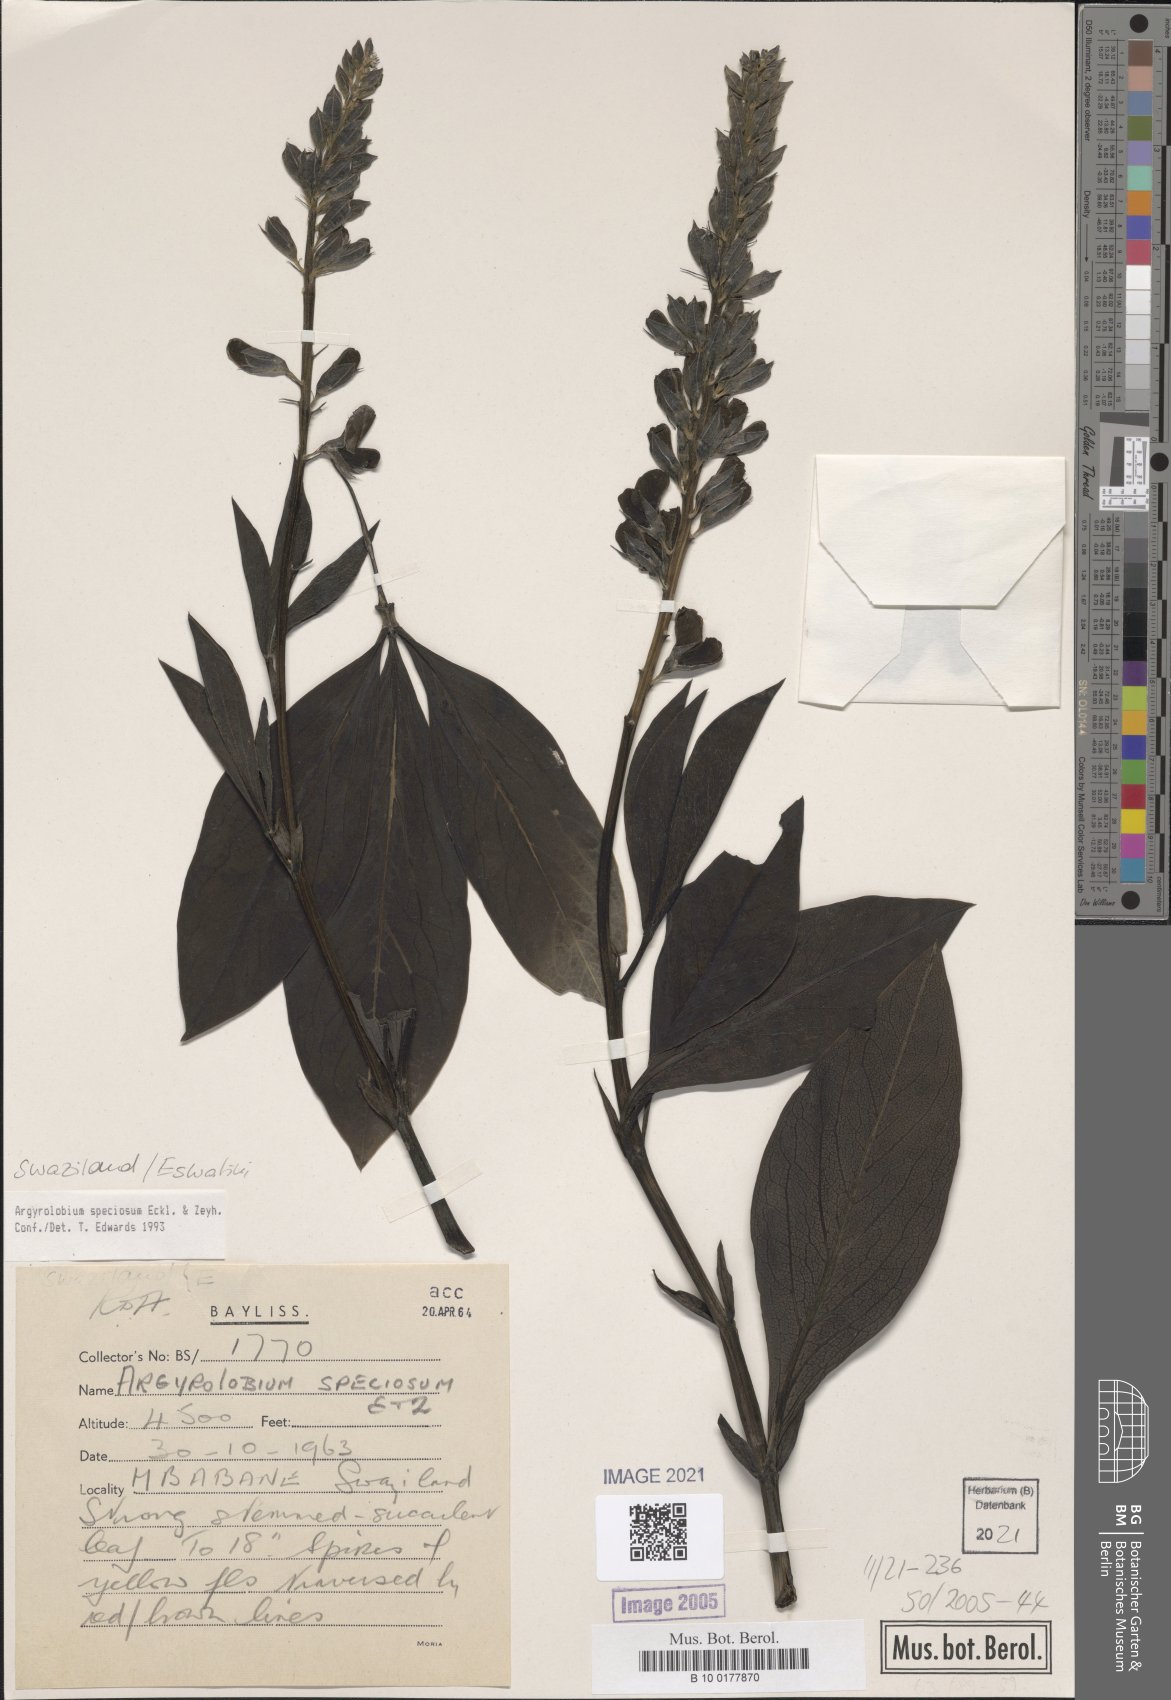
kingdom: Plantae
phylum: Tracheophyta
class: Magnoliopsida
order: Fabales
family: Fabaceae
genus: Argyrolobium
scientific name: Argyrolobium speciosum
